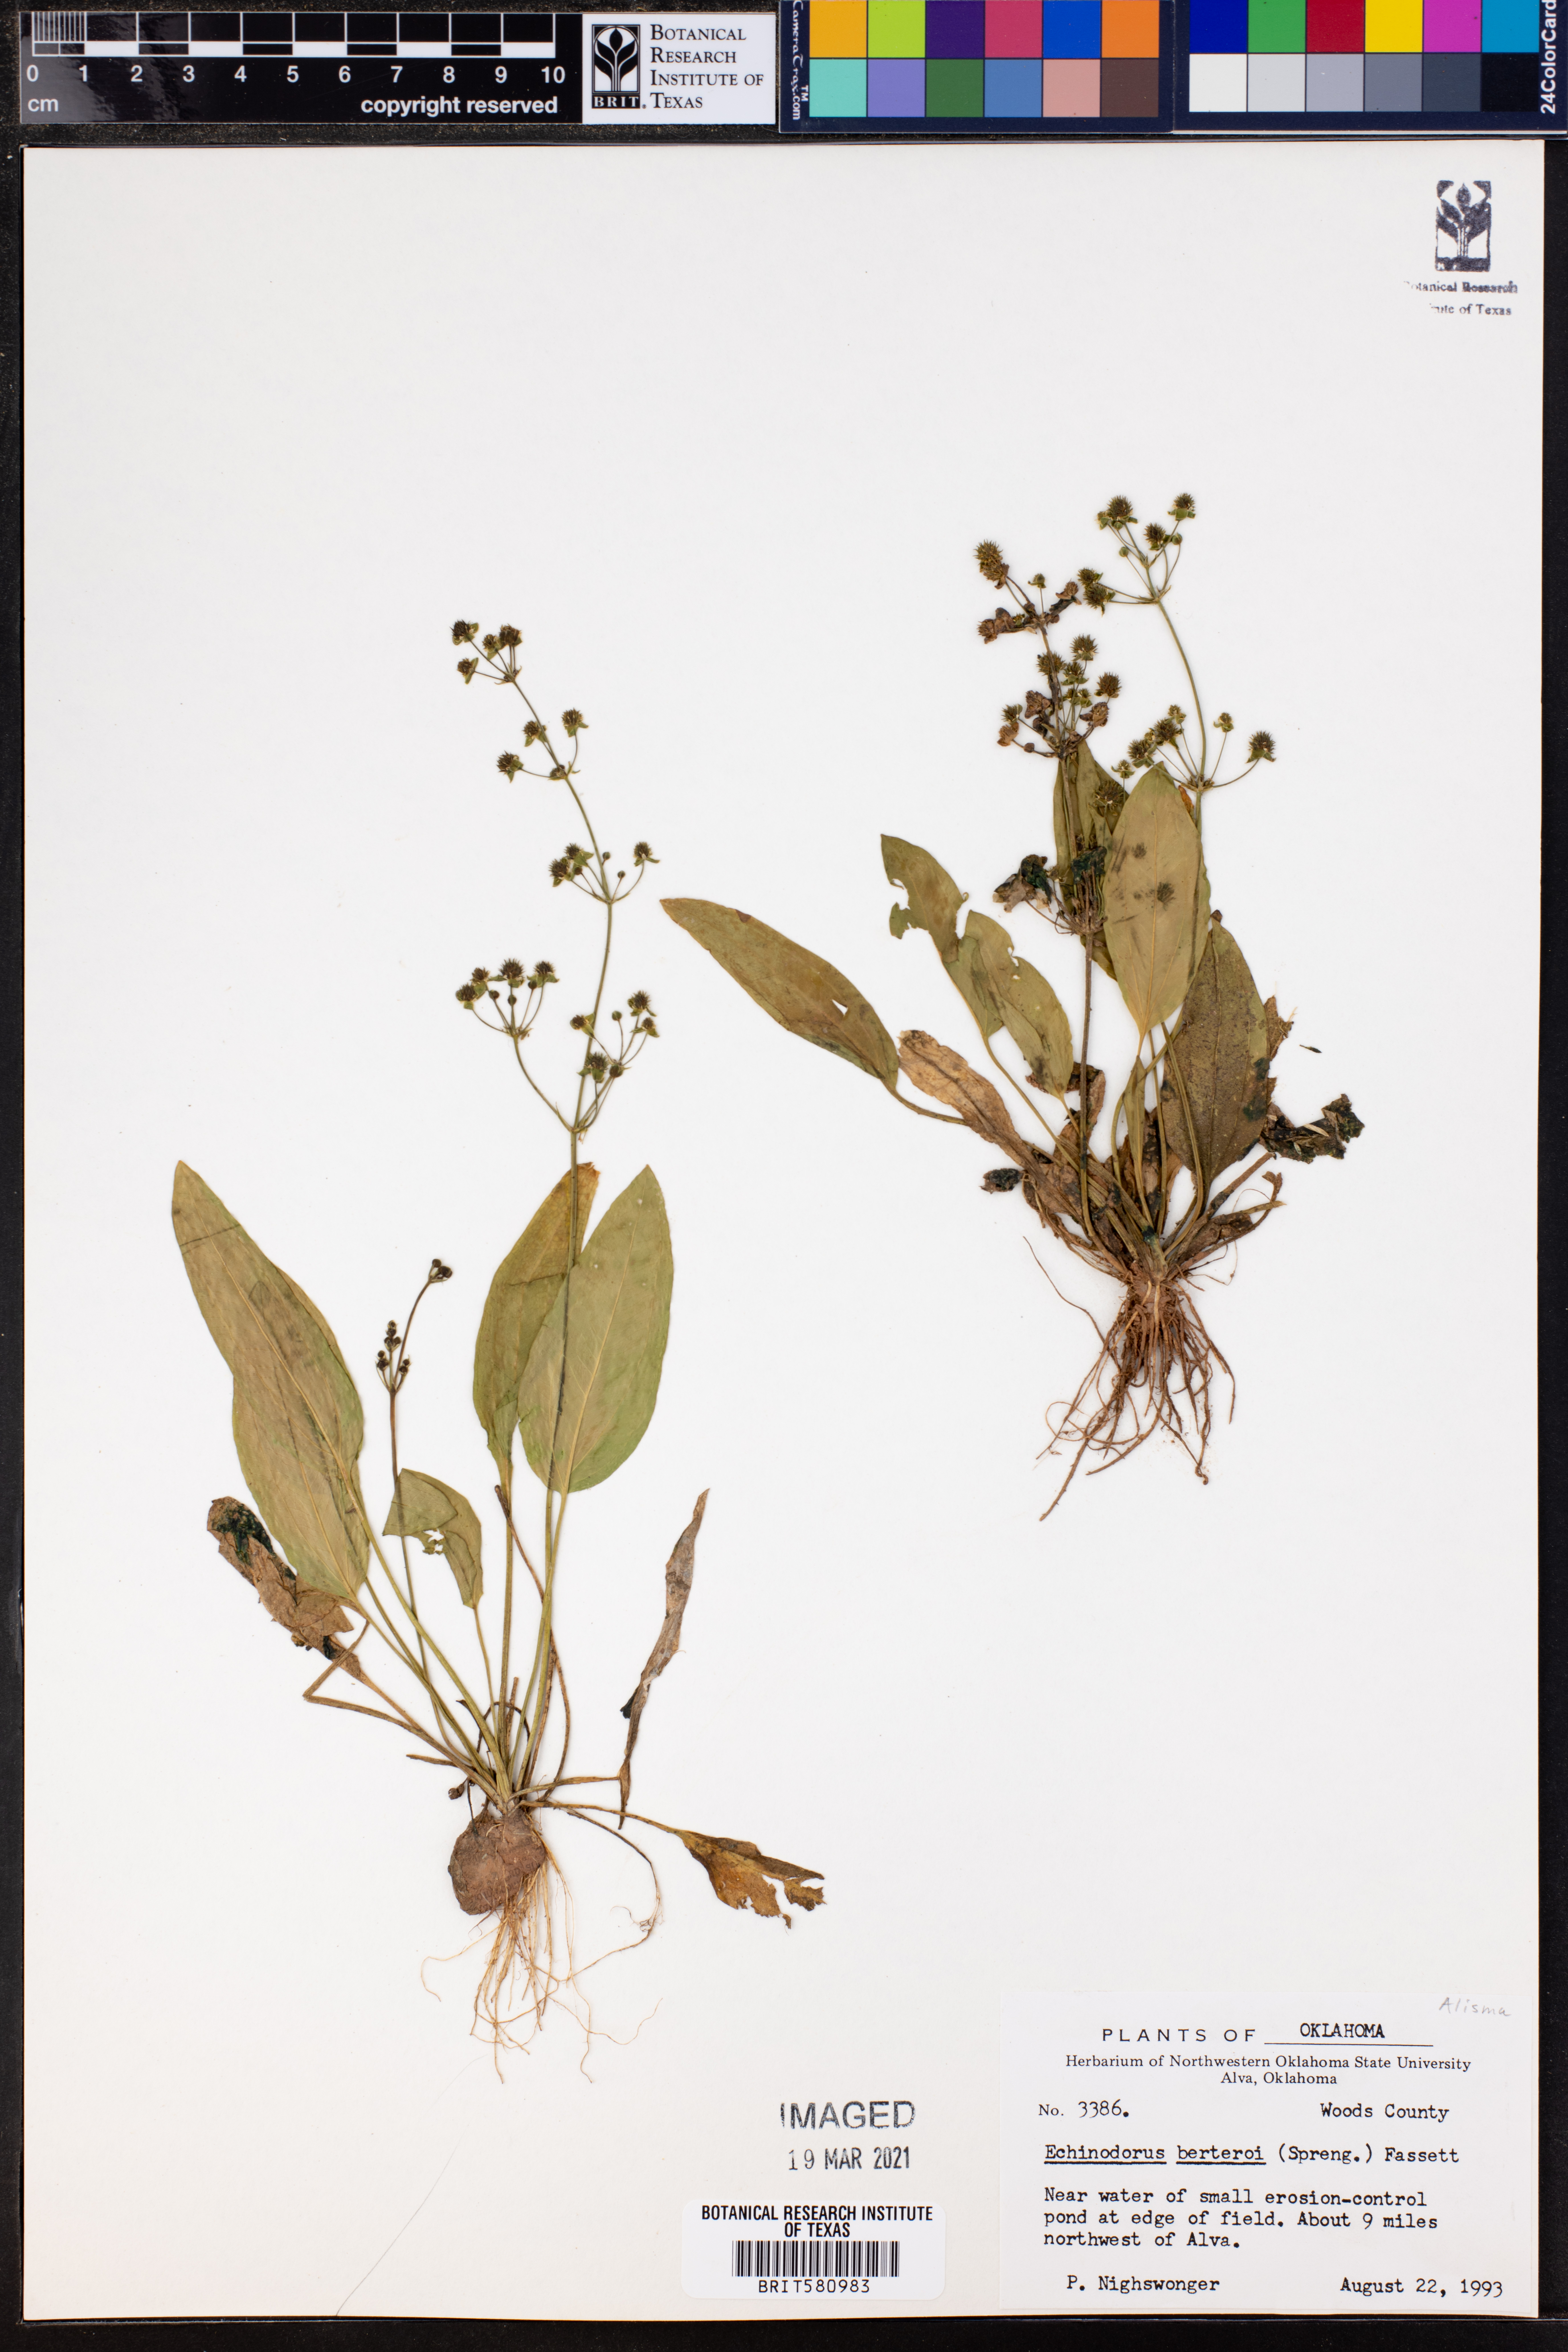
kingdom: Plantae
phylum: Tracheophyta
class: Liliopsida
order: Alismatales
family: Alismataceae
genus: Echinodorus
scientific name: Echinodorus berteroi
